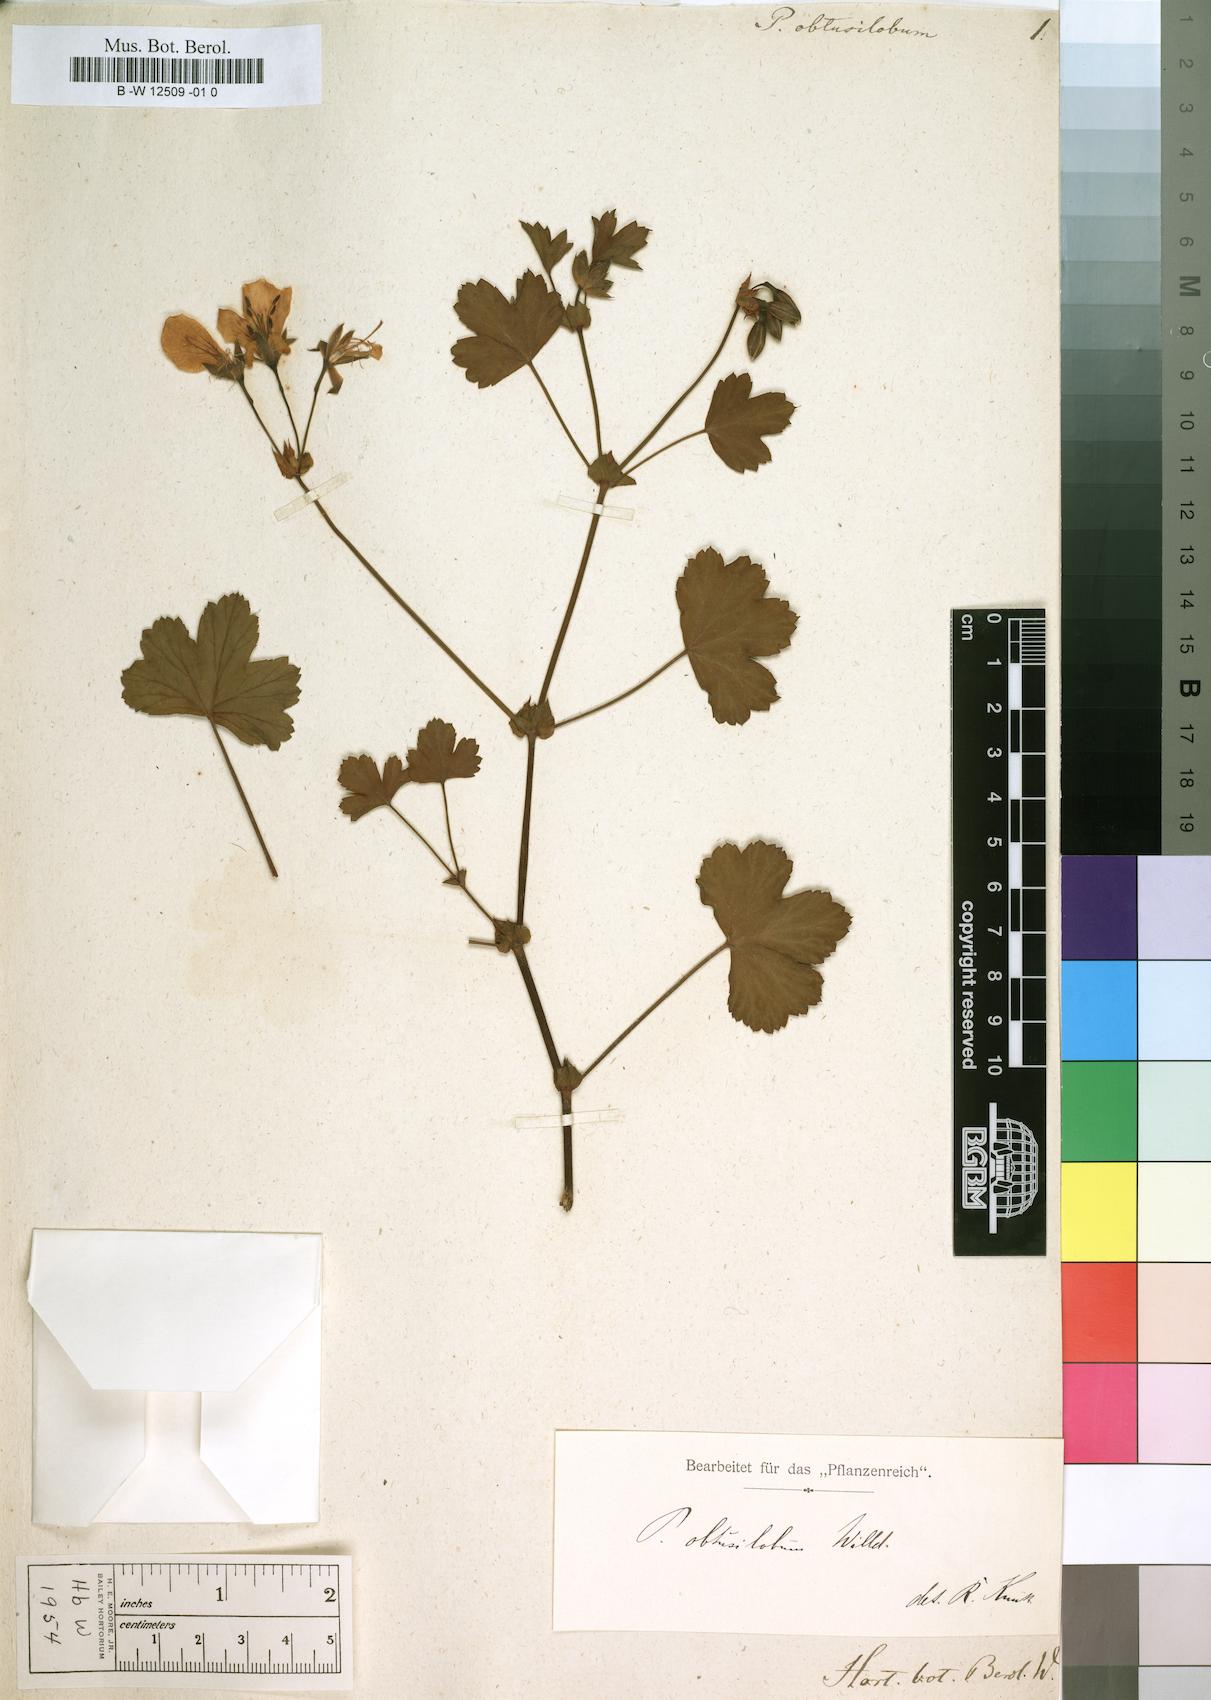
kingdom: Plantae
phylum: Tracheophyta
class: Magnoliopsida
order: Geraniales
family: Geraniaceae
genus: Pelargonium
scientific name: Pelargonium obtusilobum
